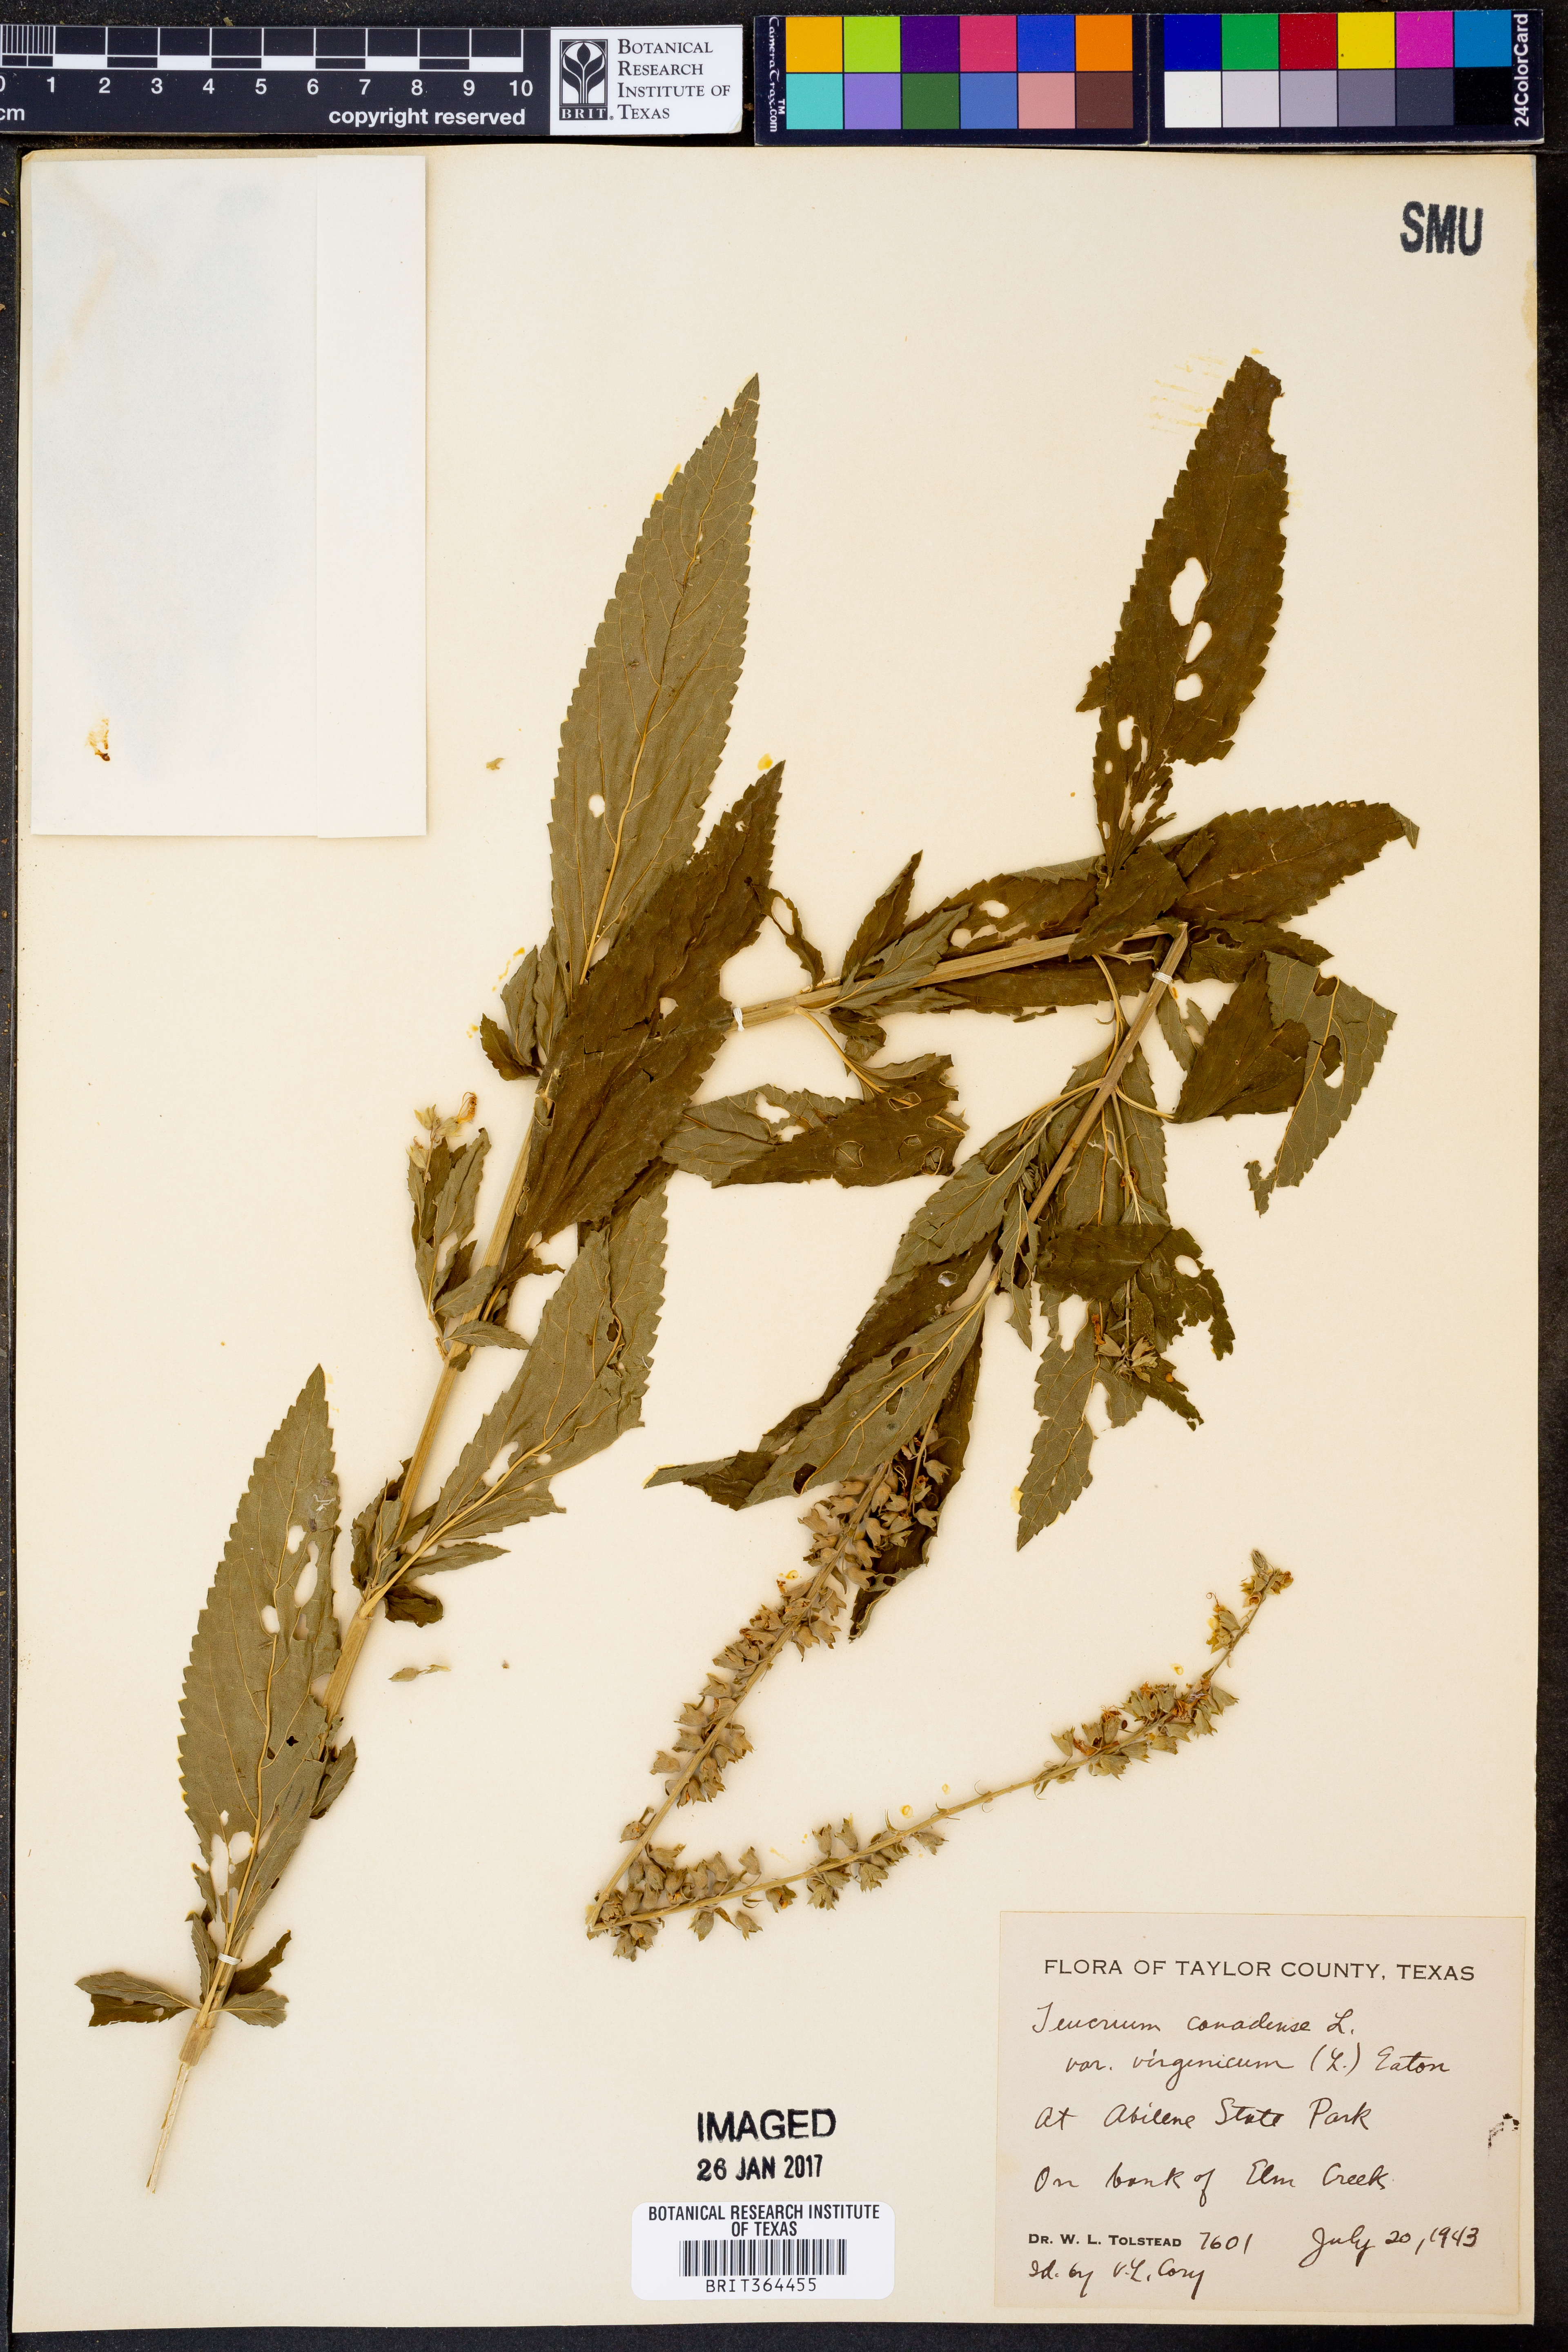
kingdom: Plantae
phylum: Tracheophyta
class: Magnoliopsida
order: Lamiales
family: Lamiaceae
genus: Teucrium
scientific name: Teucrium canadense
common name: American germander
